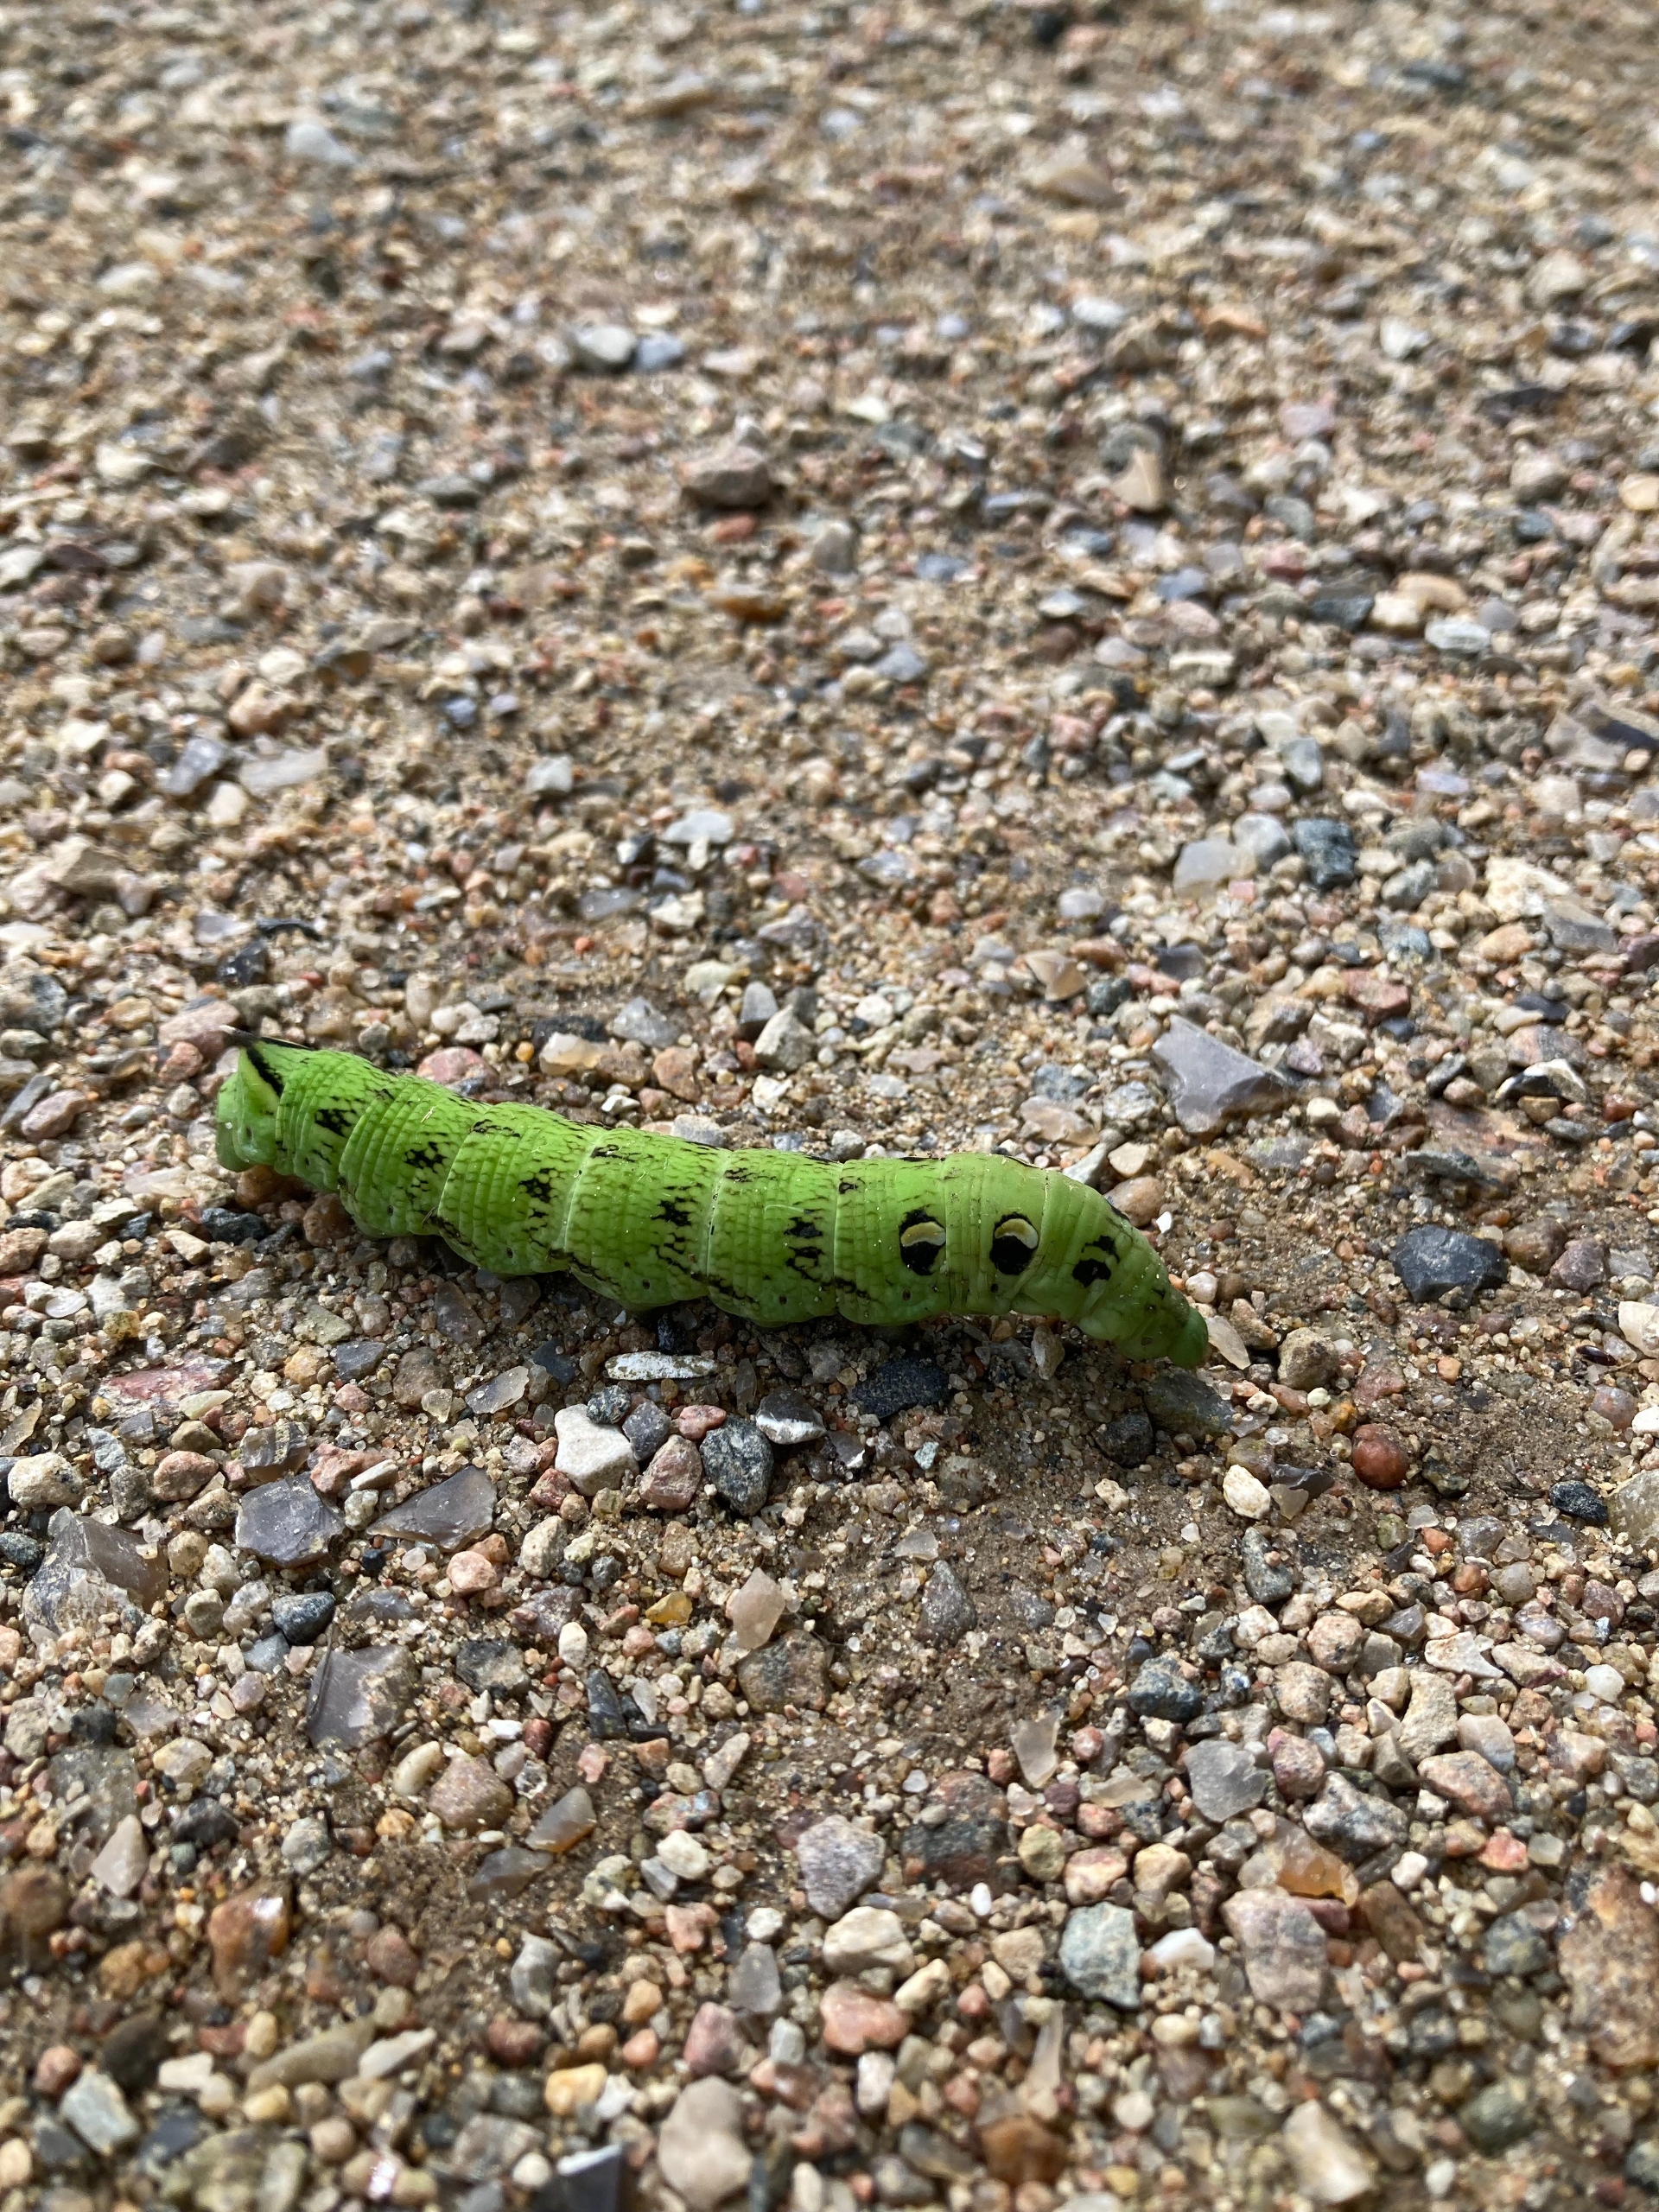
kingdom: Animalia
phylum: Arthropoda
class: Insecta
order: Lepidoptera
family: Sphingidae
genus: Deilephila
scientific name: Deilephila elpenor
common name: Dueurtsværmer
